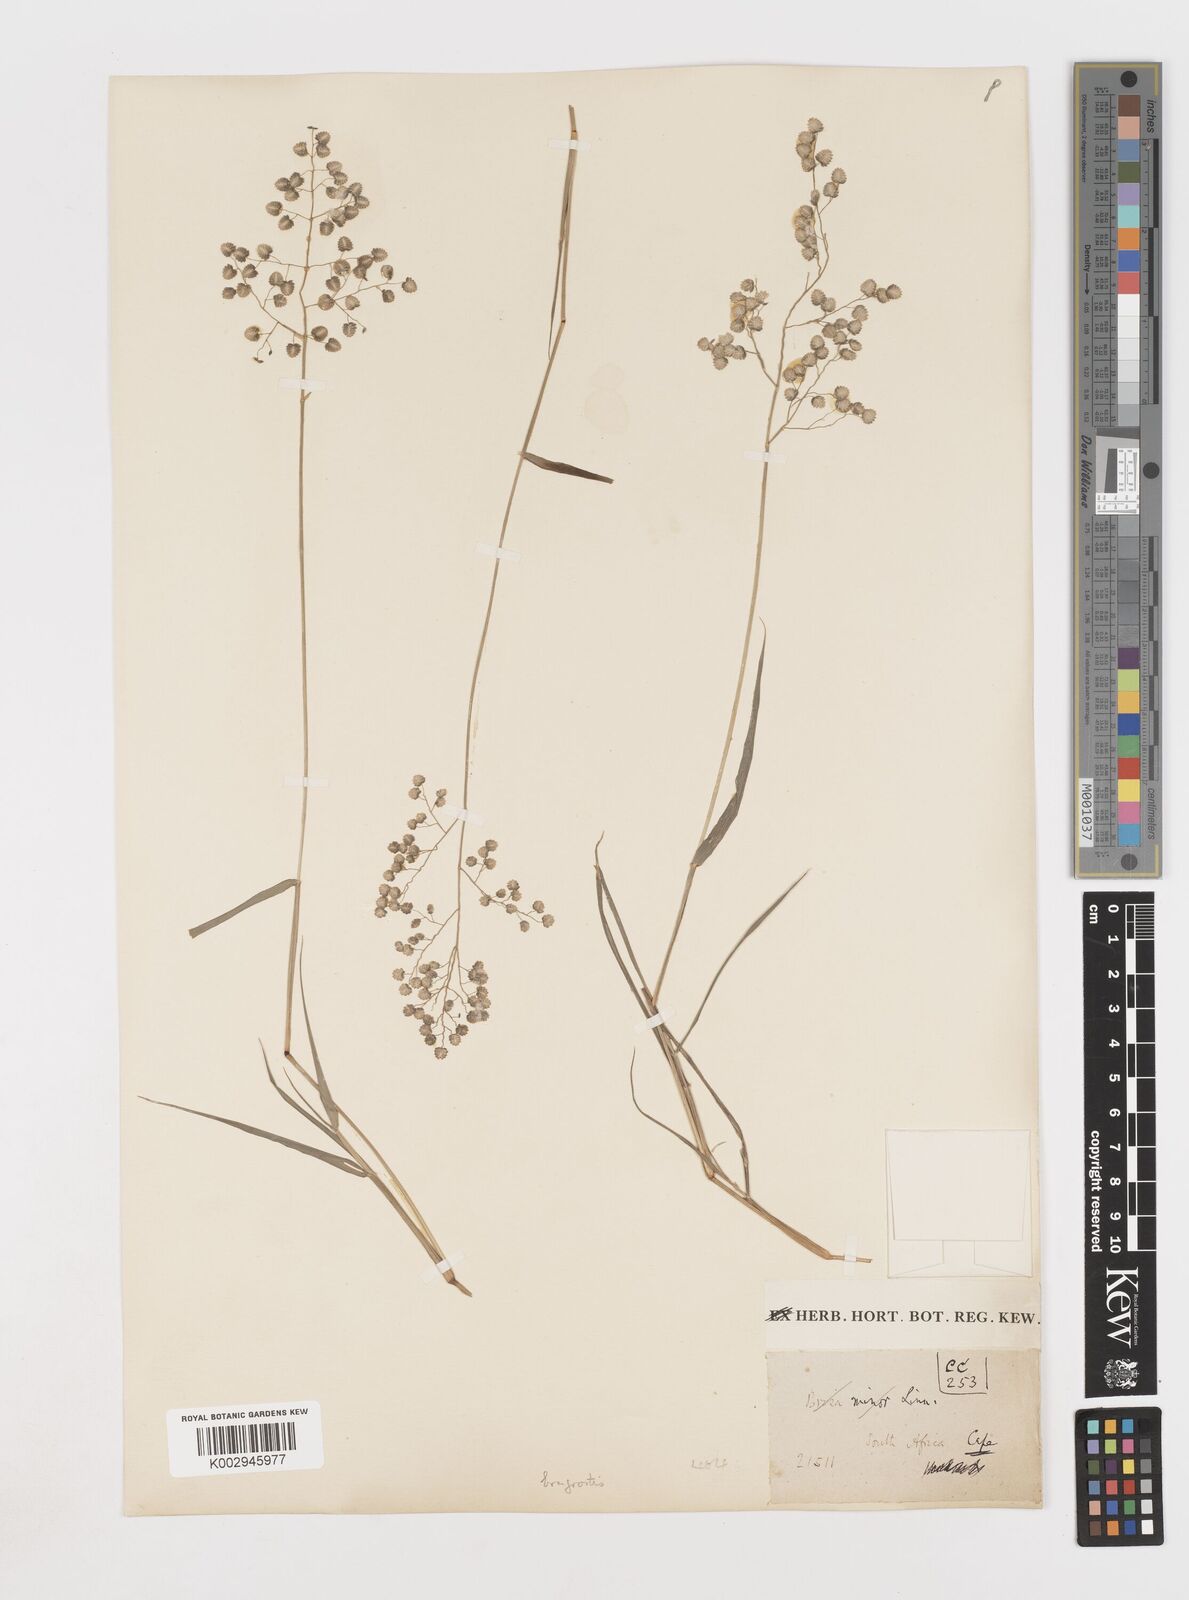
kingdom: Plantae
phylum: Tracheophyta
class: Liliopsida
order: Poales
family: Poaceae
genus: Eragrostis
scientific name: Eragrostis obtusa
